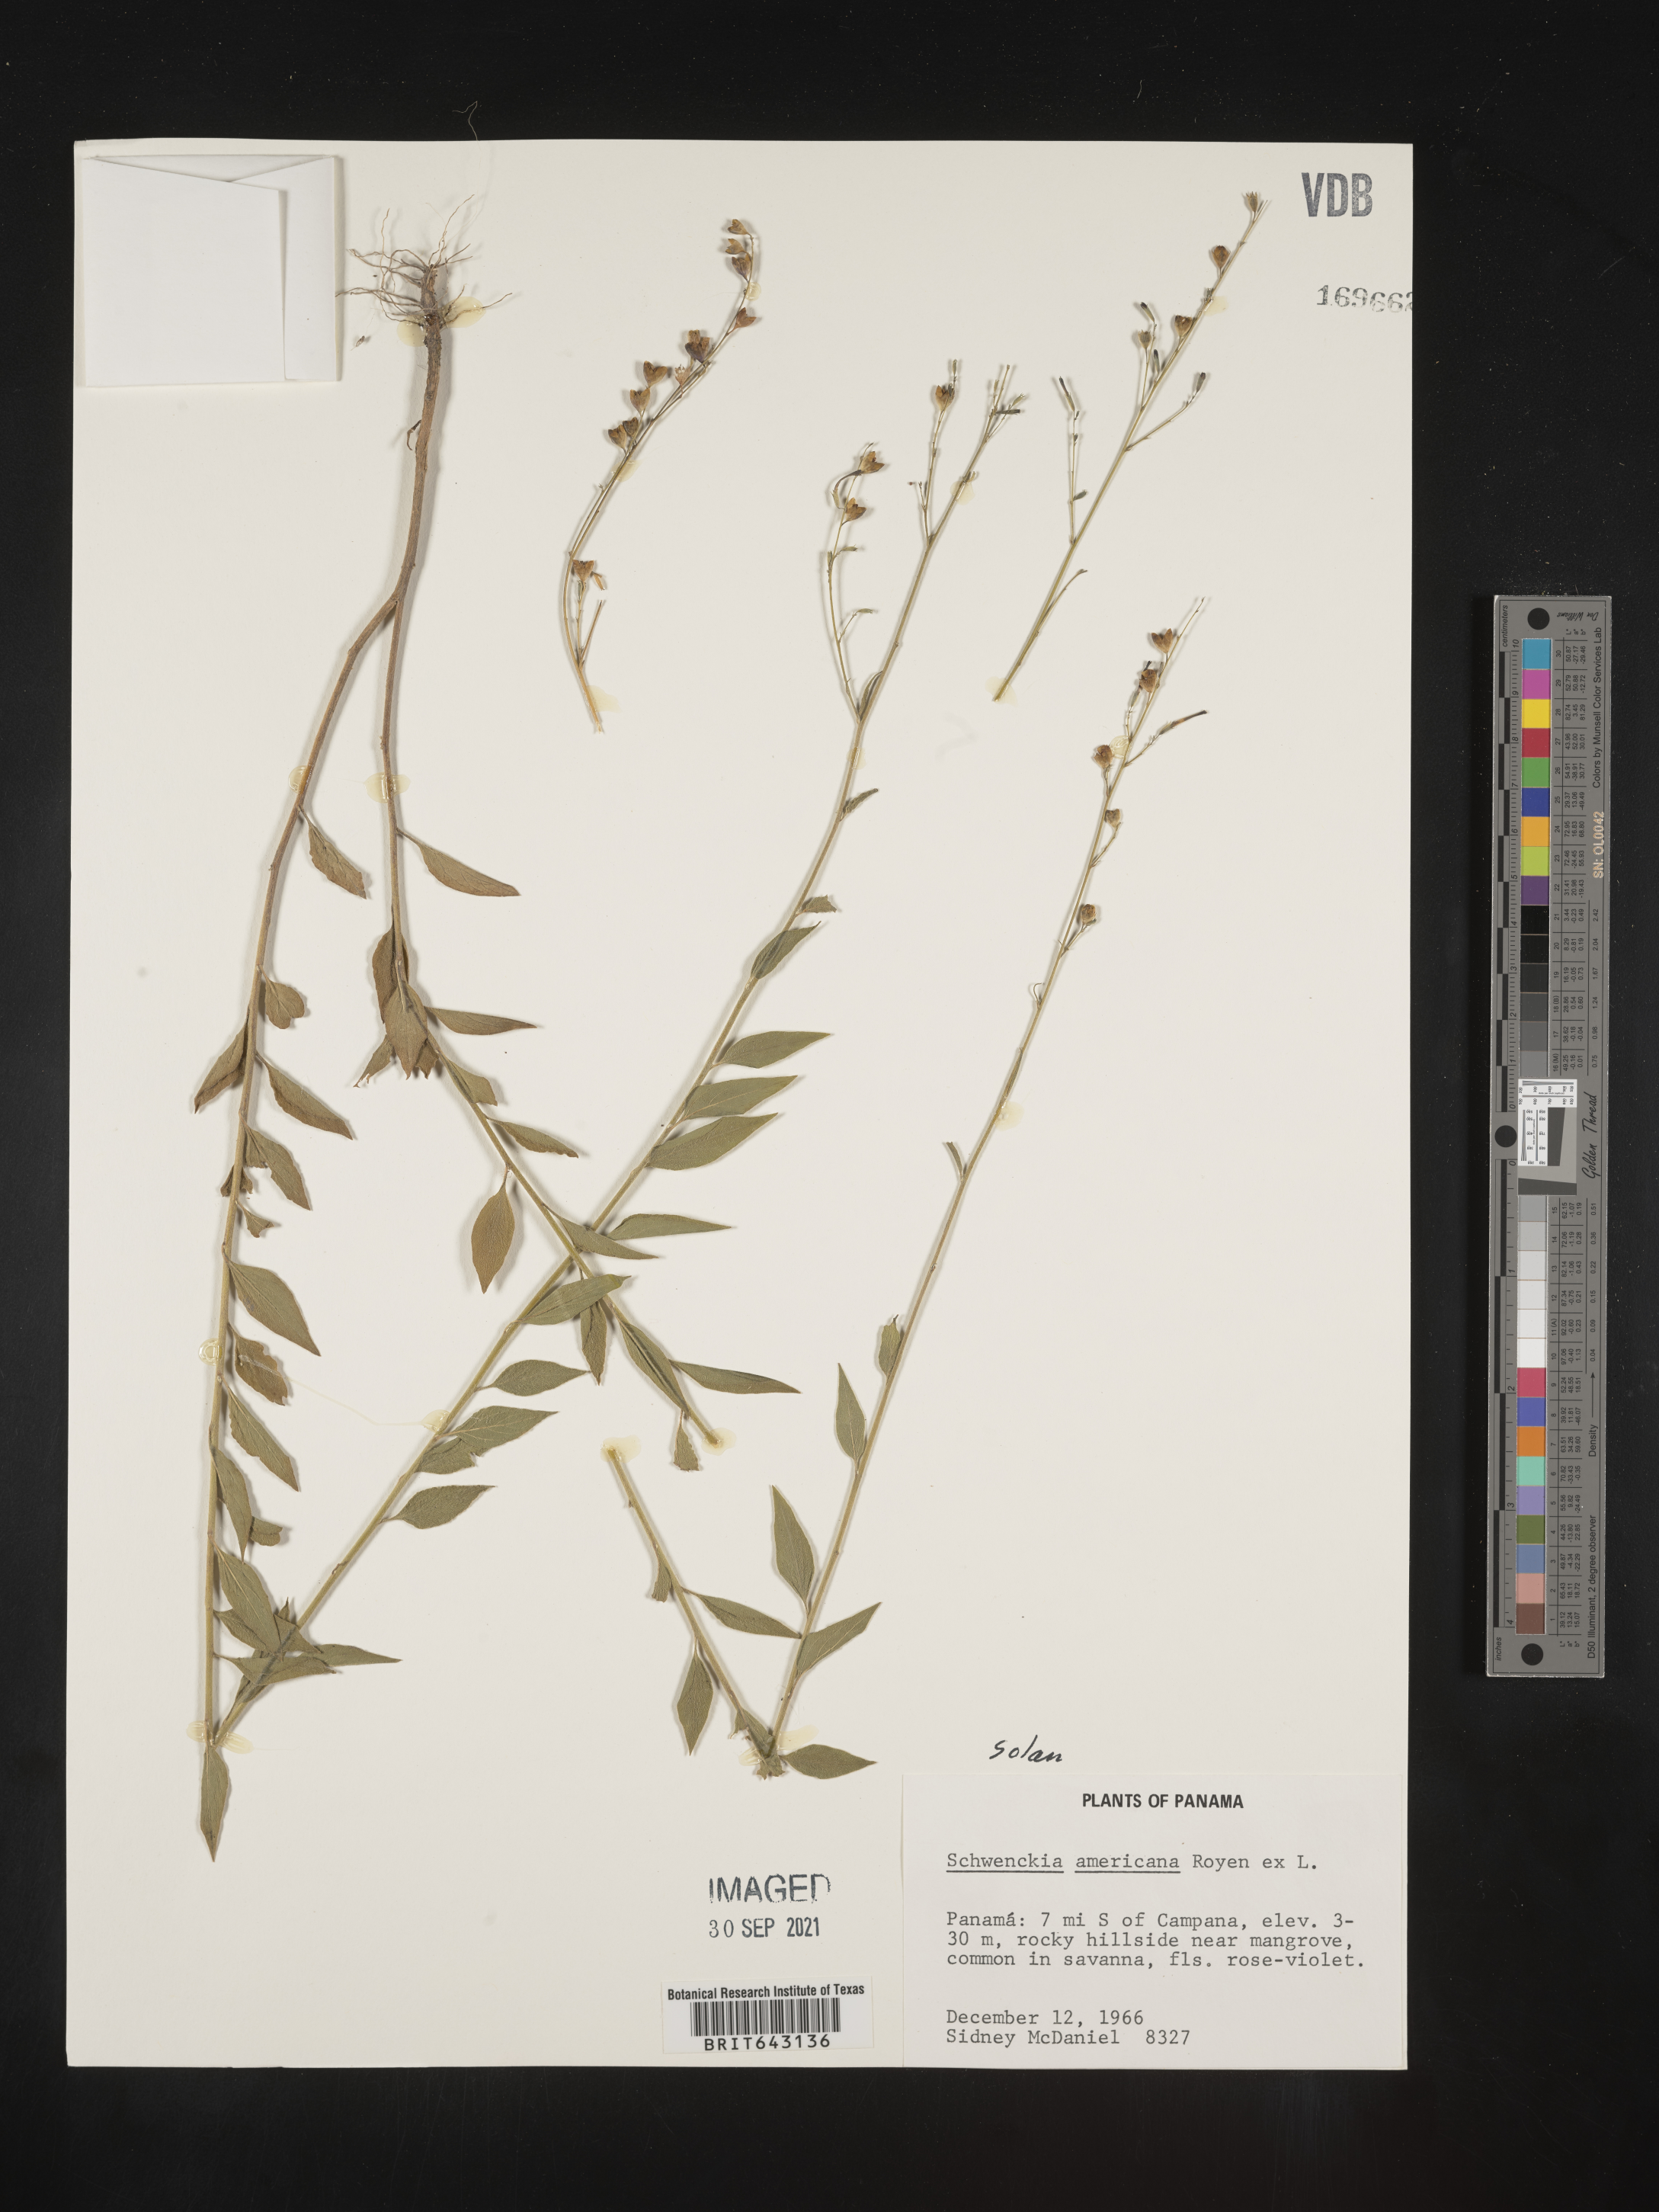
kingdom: Plantae
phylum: Tracheophyta
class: Magnoliopsida
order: Solanales
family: Solanaceae
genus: Schwenckia
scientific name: Schwenckia
